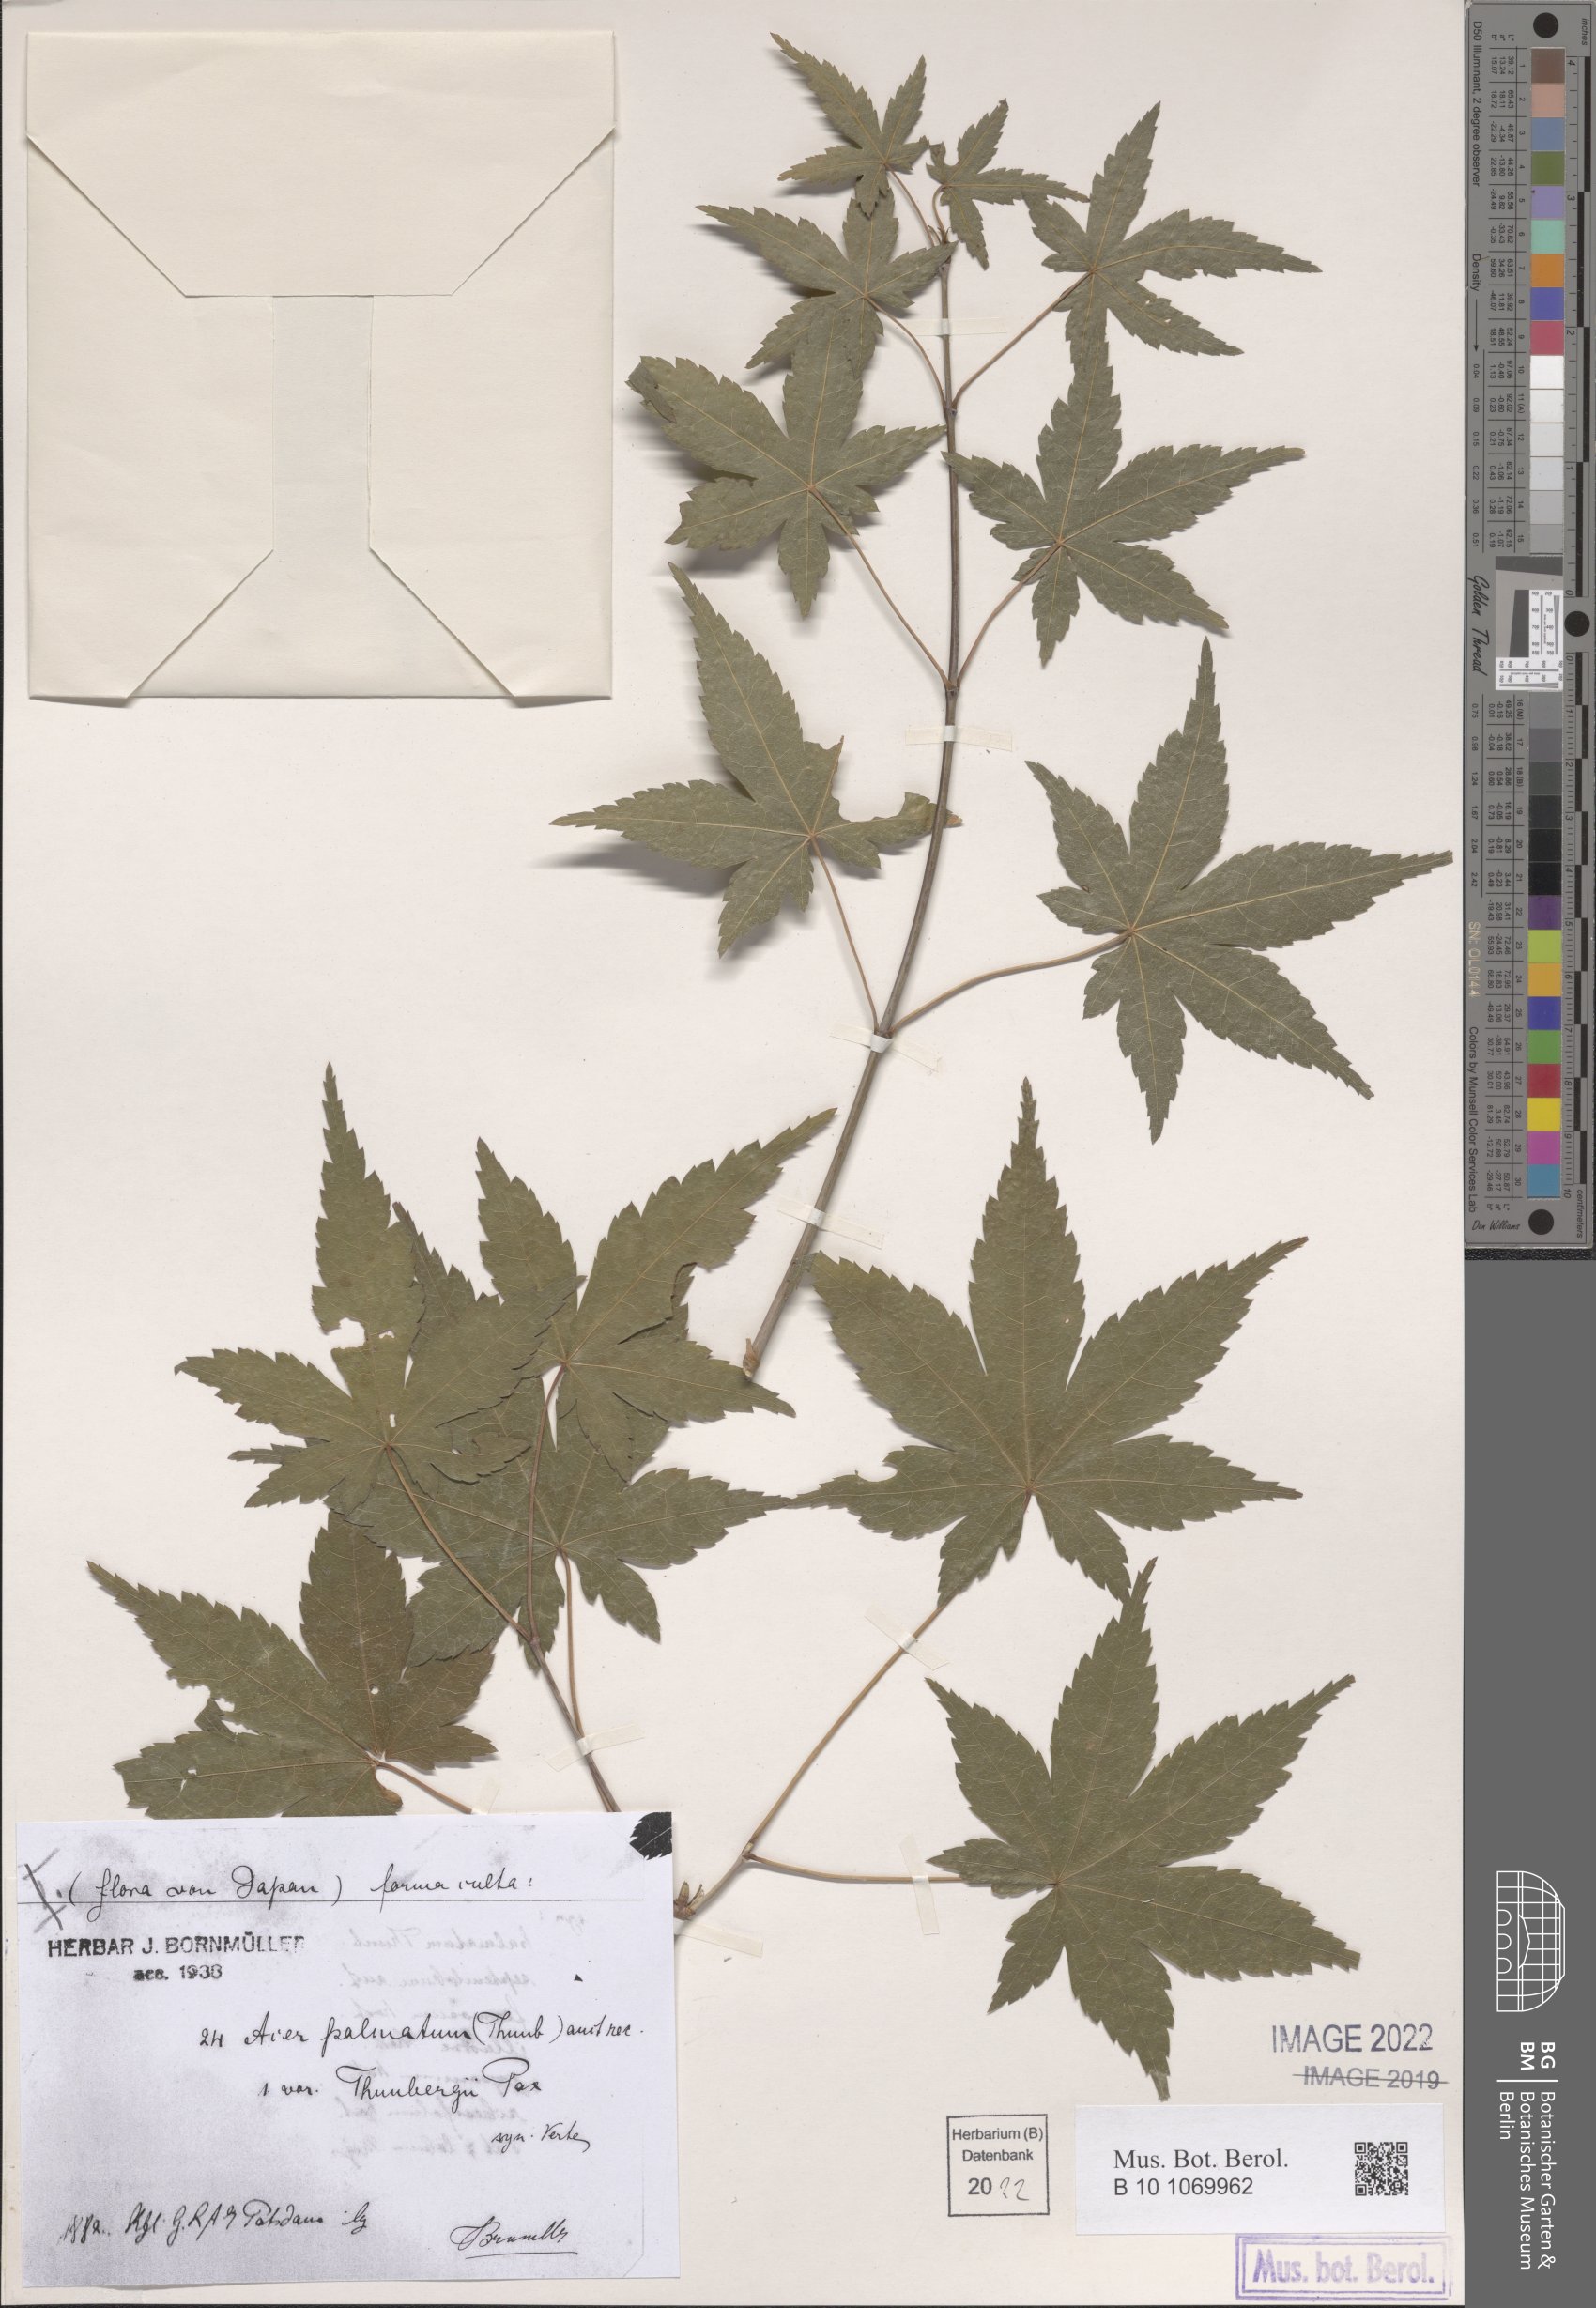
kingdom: Plantae
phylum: Tracheophyta
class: Magnoliopsida
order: Sapindales
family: Sapindaceae
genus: Acer
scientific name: Acer palmatum
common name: Japanese maple
